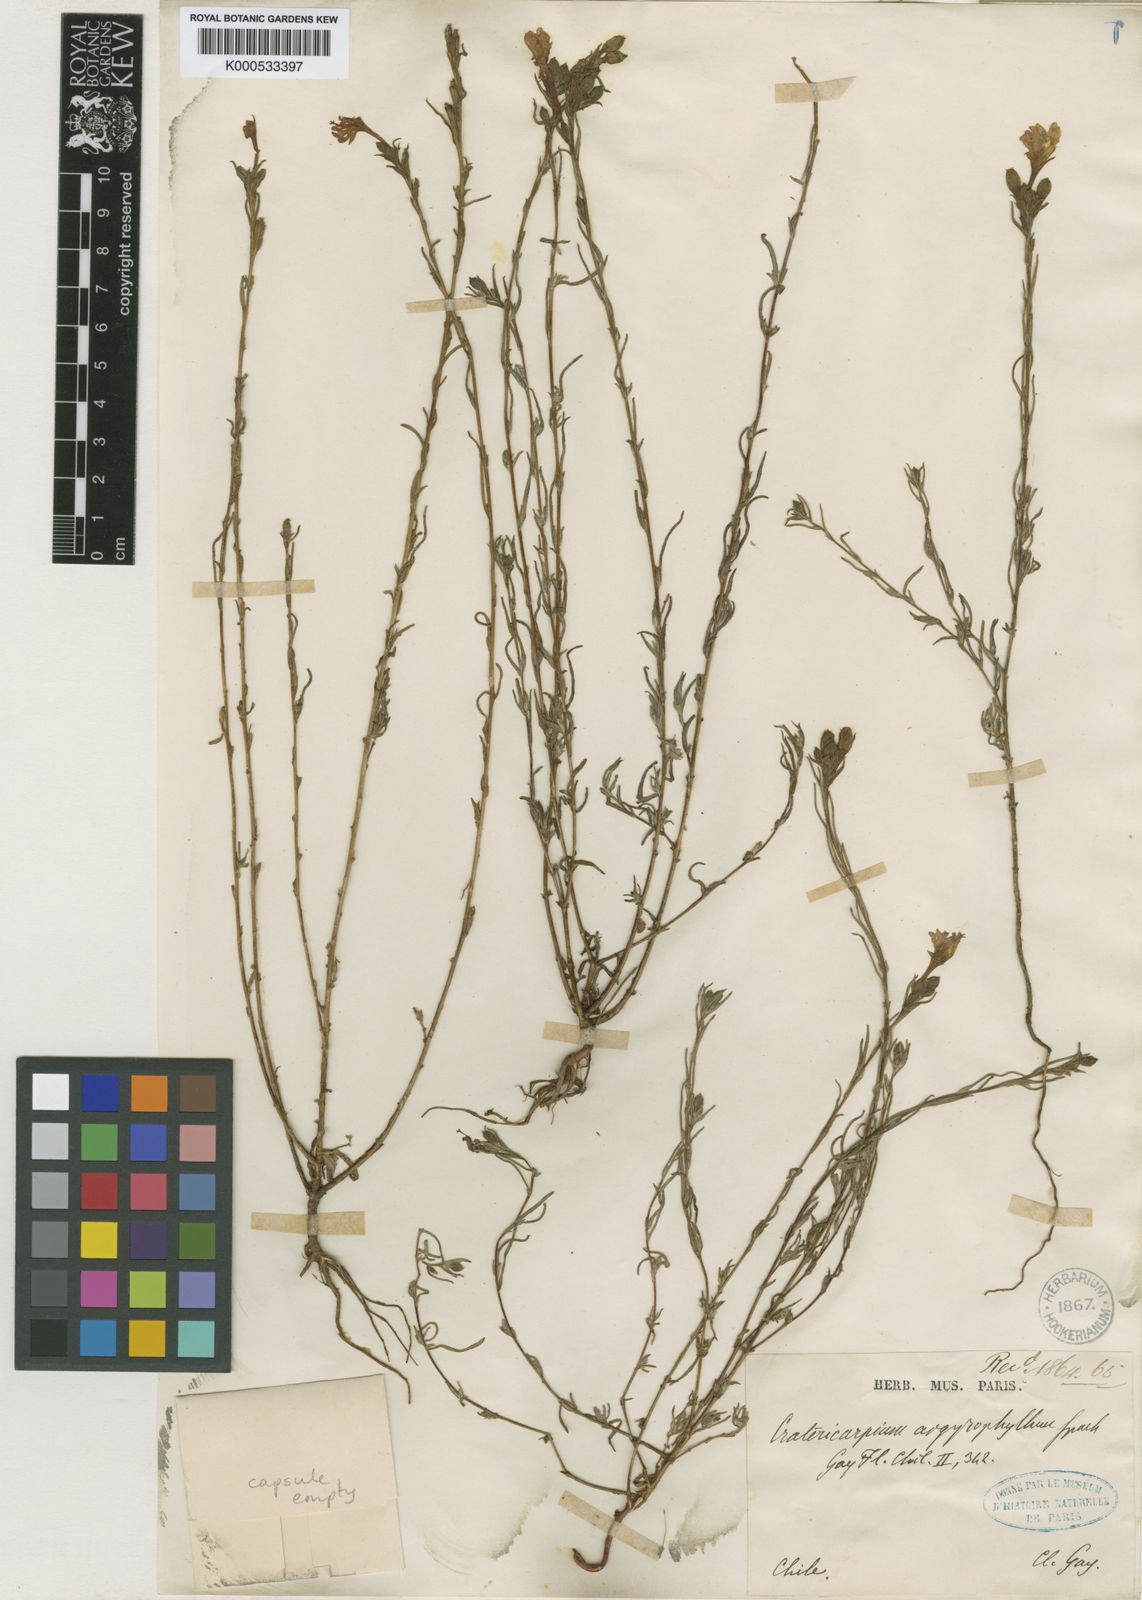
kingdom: Plantae
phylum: Tracheophyta
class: Magnoliopsida
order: Myrtales
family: Onagraceae
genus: Epilobium
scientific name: Epilobium subdentatum
